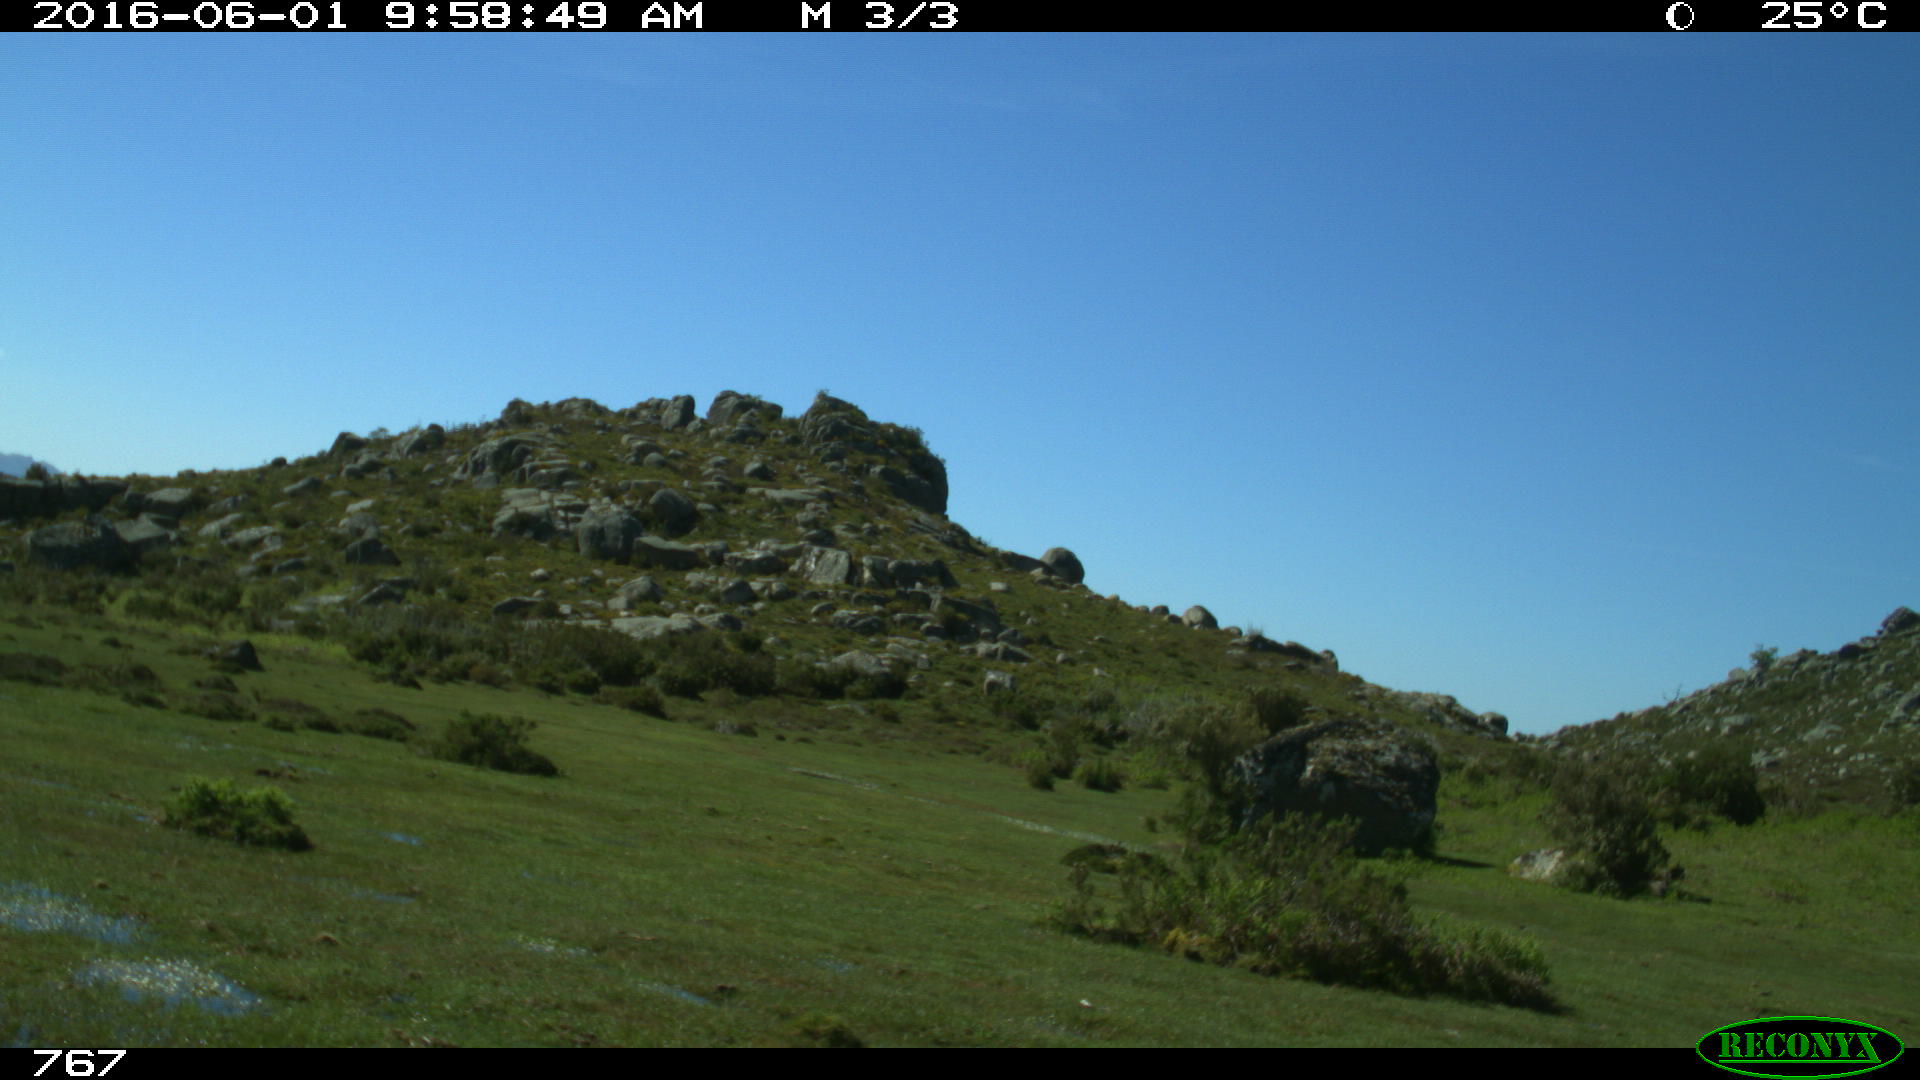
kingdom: Animalia
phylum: Chordata
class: Mammalia
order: Artiodactyla
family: Bovidae
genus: Bos
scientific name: Bos taurus
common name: Domesticated cattle
